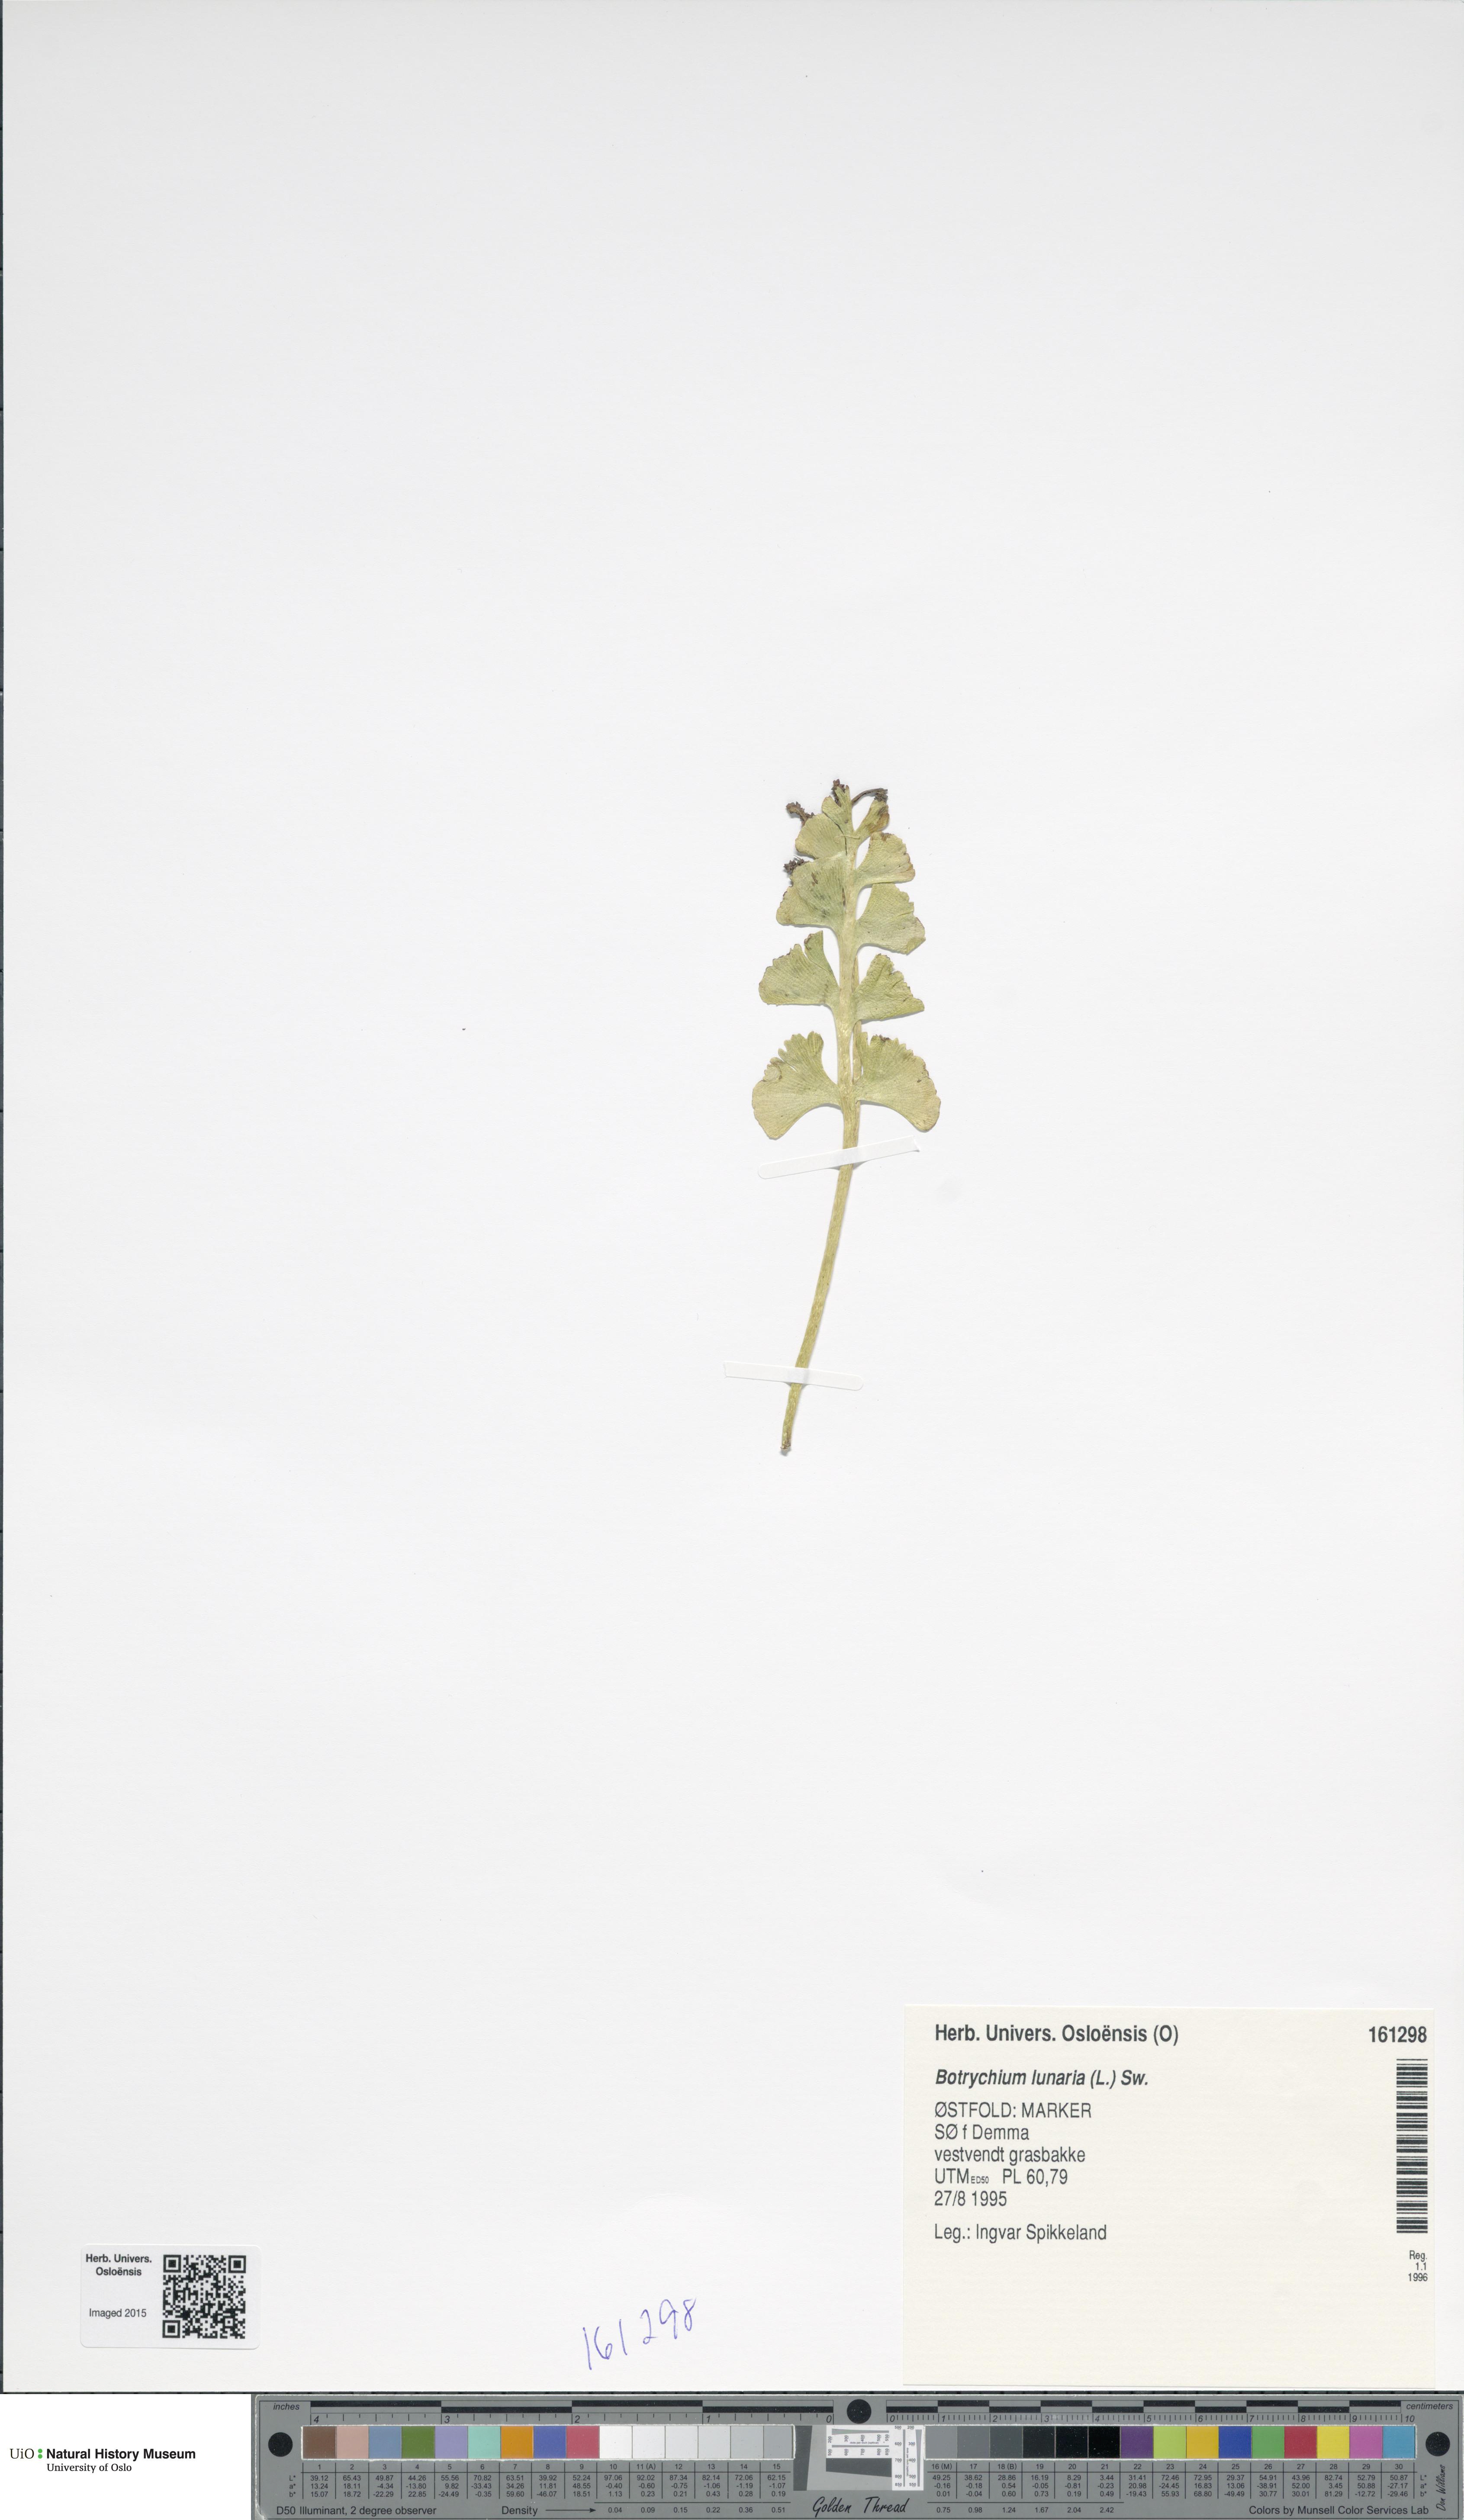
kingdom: Plantae
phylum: Tracheophyta
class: Polypodiopsida
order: Ophioglossales
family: Ophioglossaceae
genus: Botrychium
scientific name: Botrychium lunaria
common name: Moonwort
